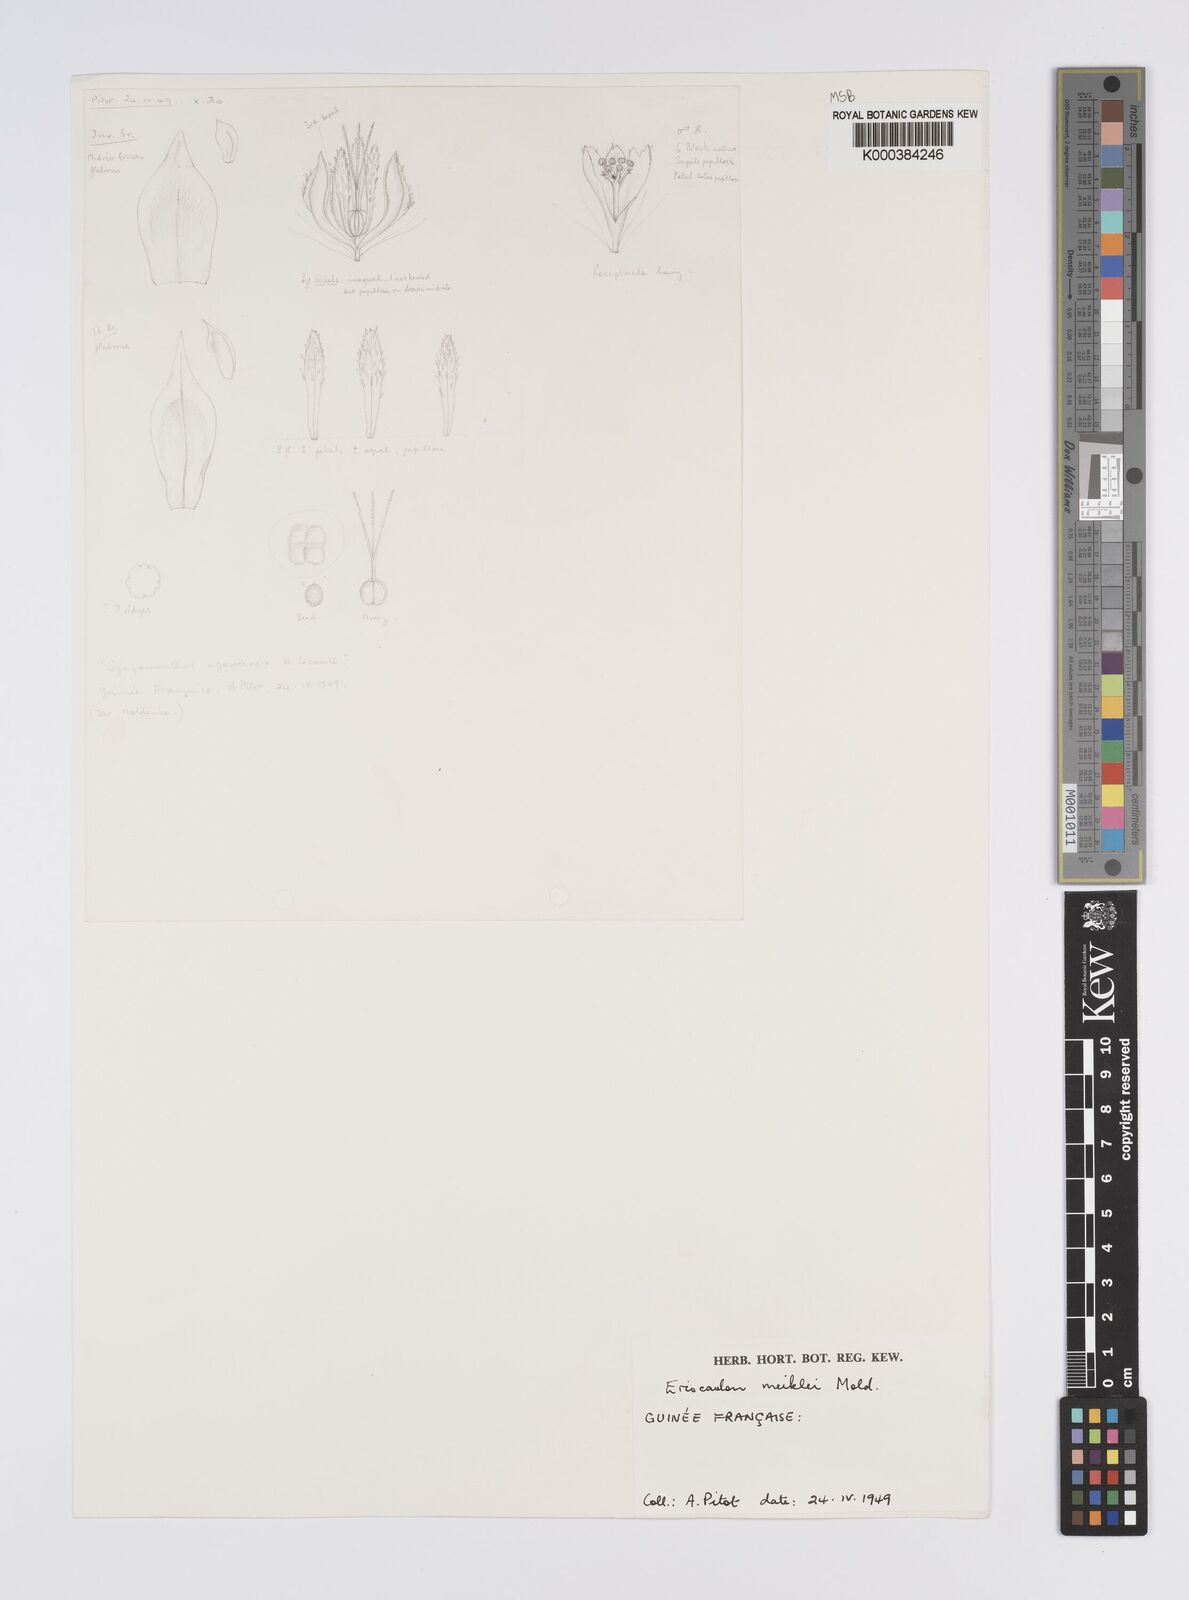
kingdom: Plantae
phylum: Tracheophyta
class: Liliopsida
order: Poales
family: Eriocaulaceae
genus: Eriocaulon
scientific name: Eriocaulon meiklei
